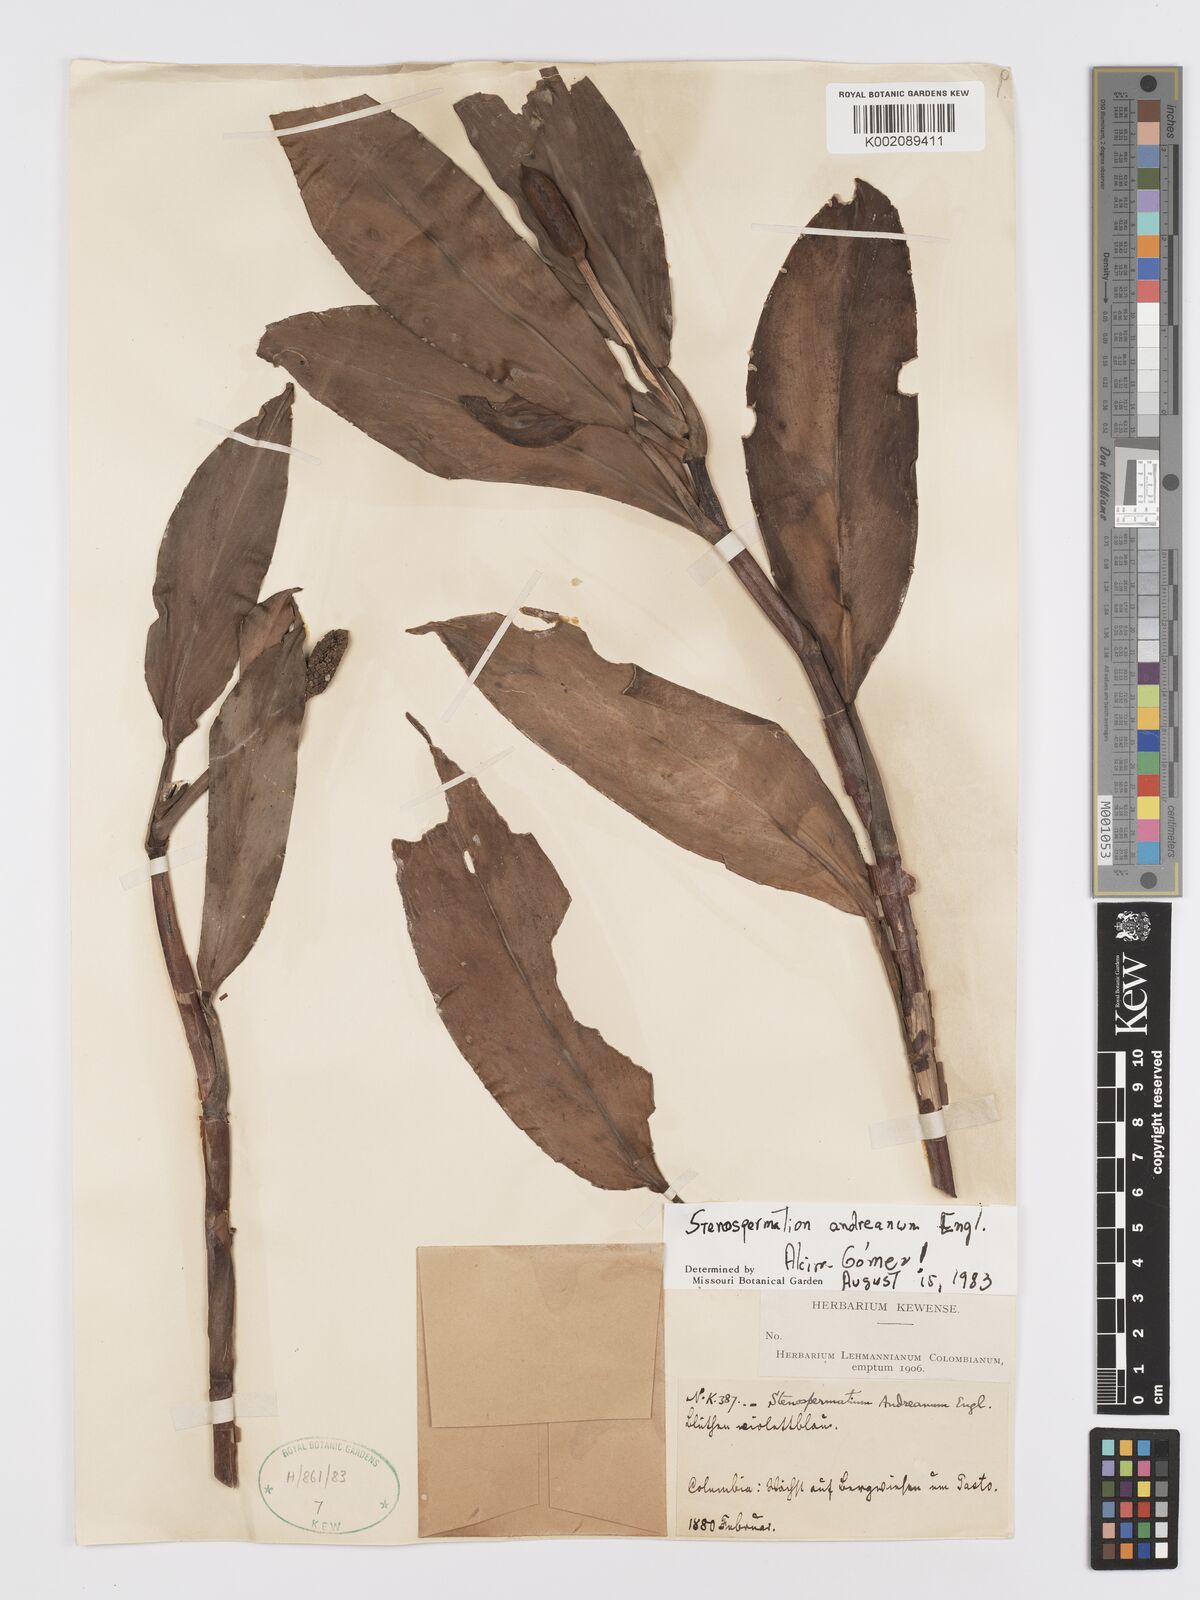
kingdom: Plantae
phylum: Tracheophyta
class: Liliopsida
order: Alismatales
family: Araceae
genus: Stenospermation
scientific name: Stenospermation andreanum
